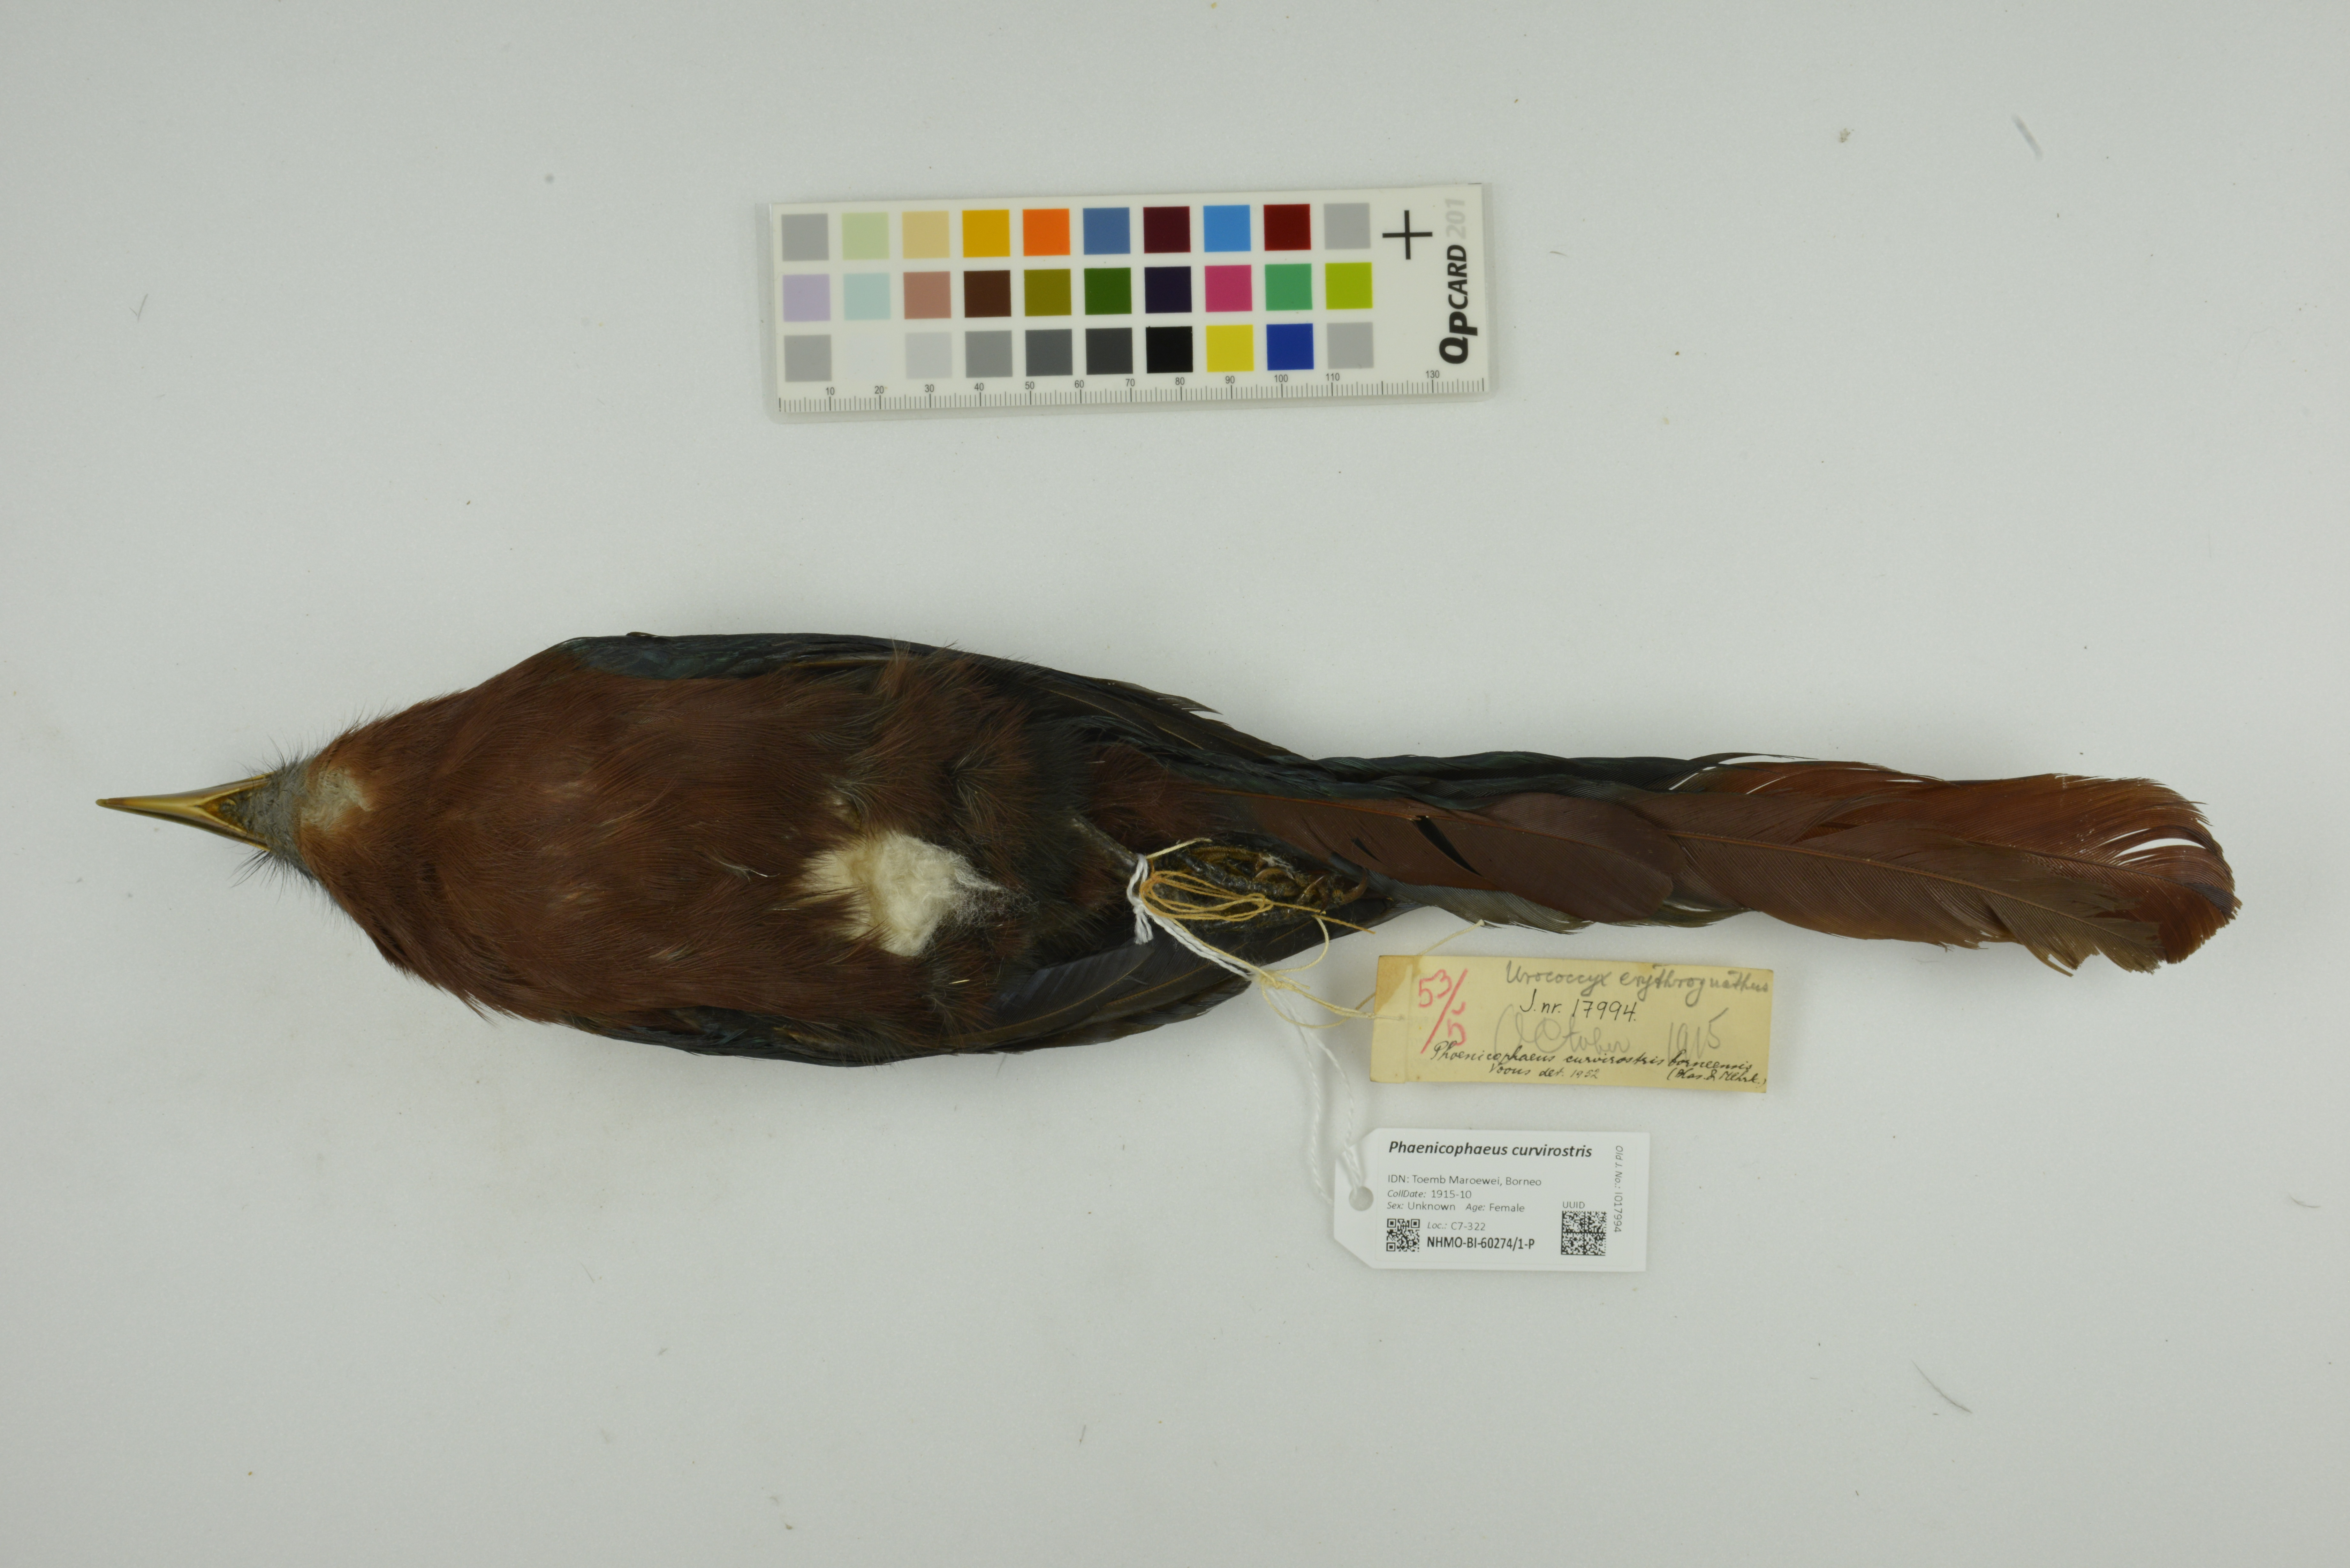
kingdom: Animalia
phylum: Chordata
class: Aves
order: Cuculiformes
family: Cuculidae
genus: Zanclostomus
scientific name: Zanclostomus curvirostris
